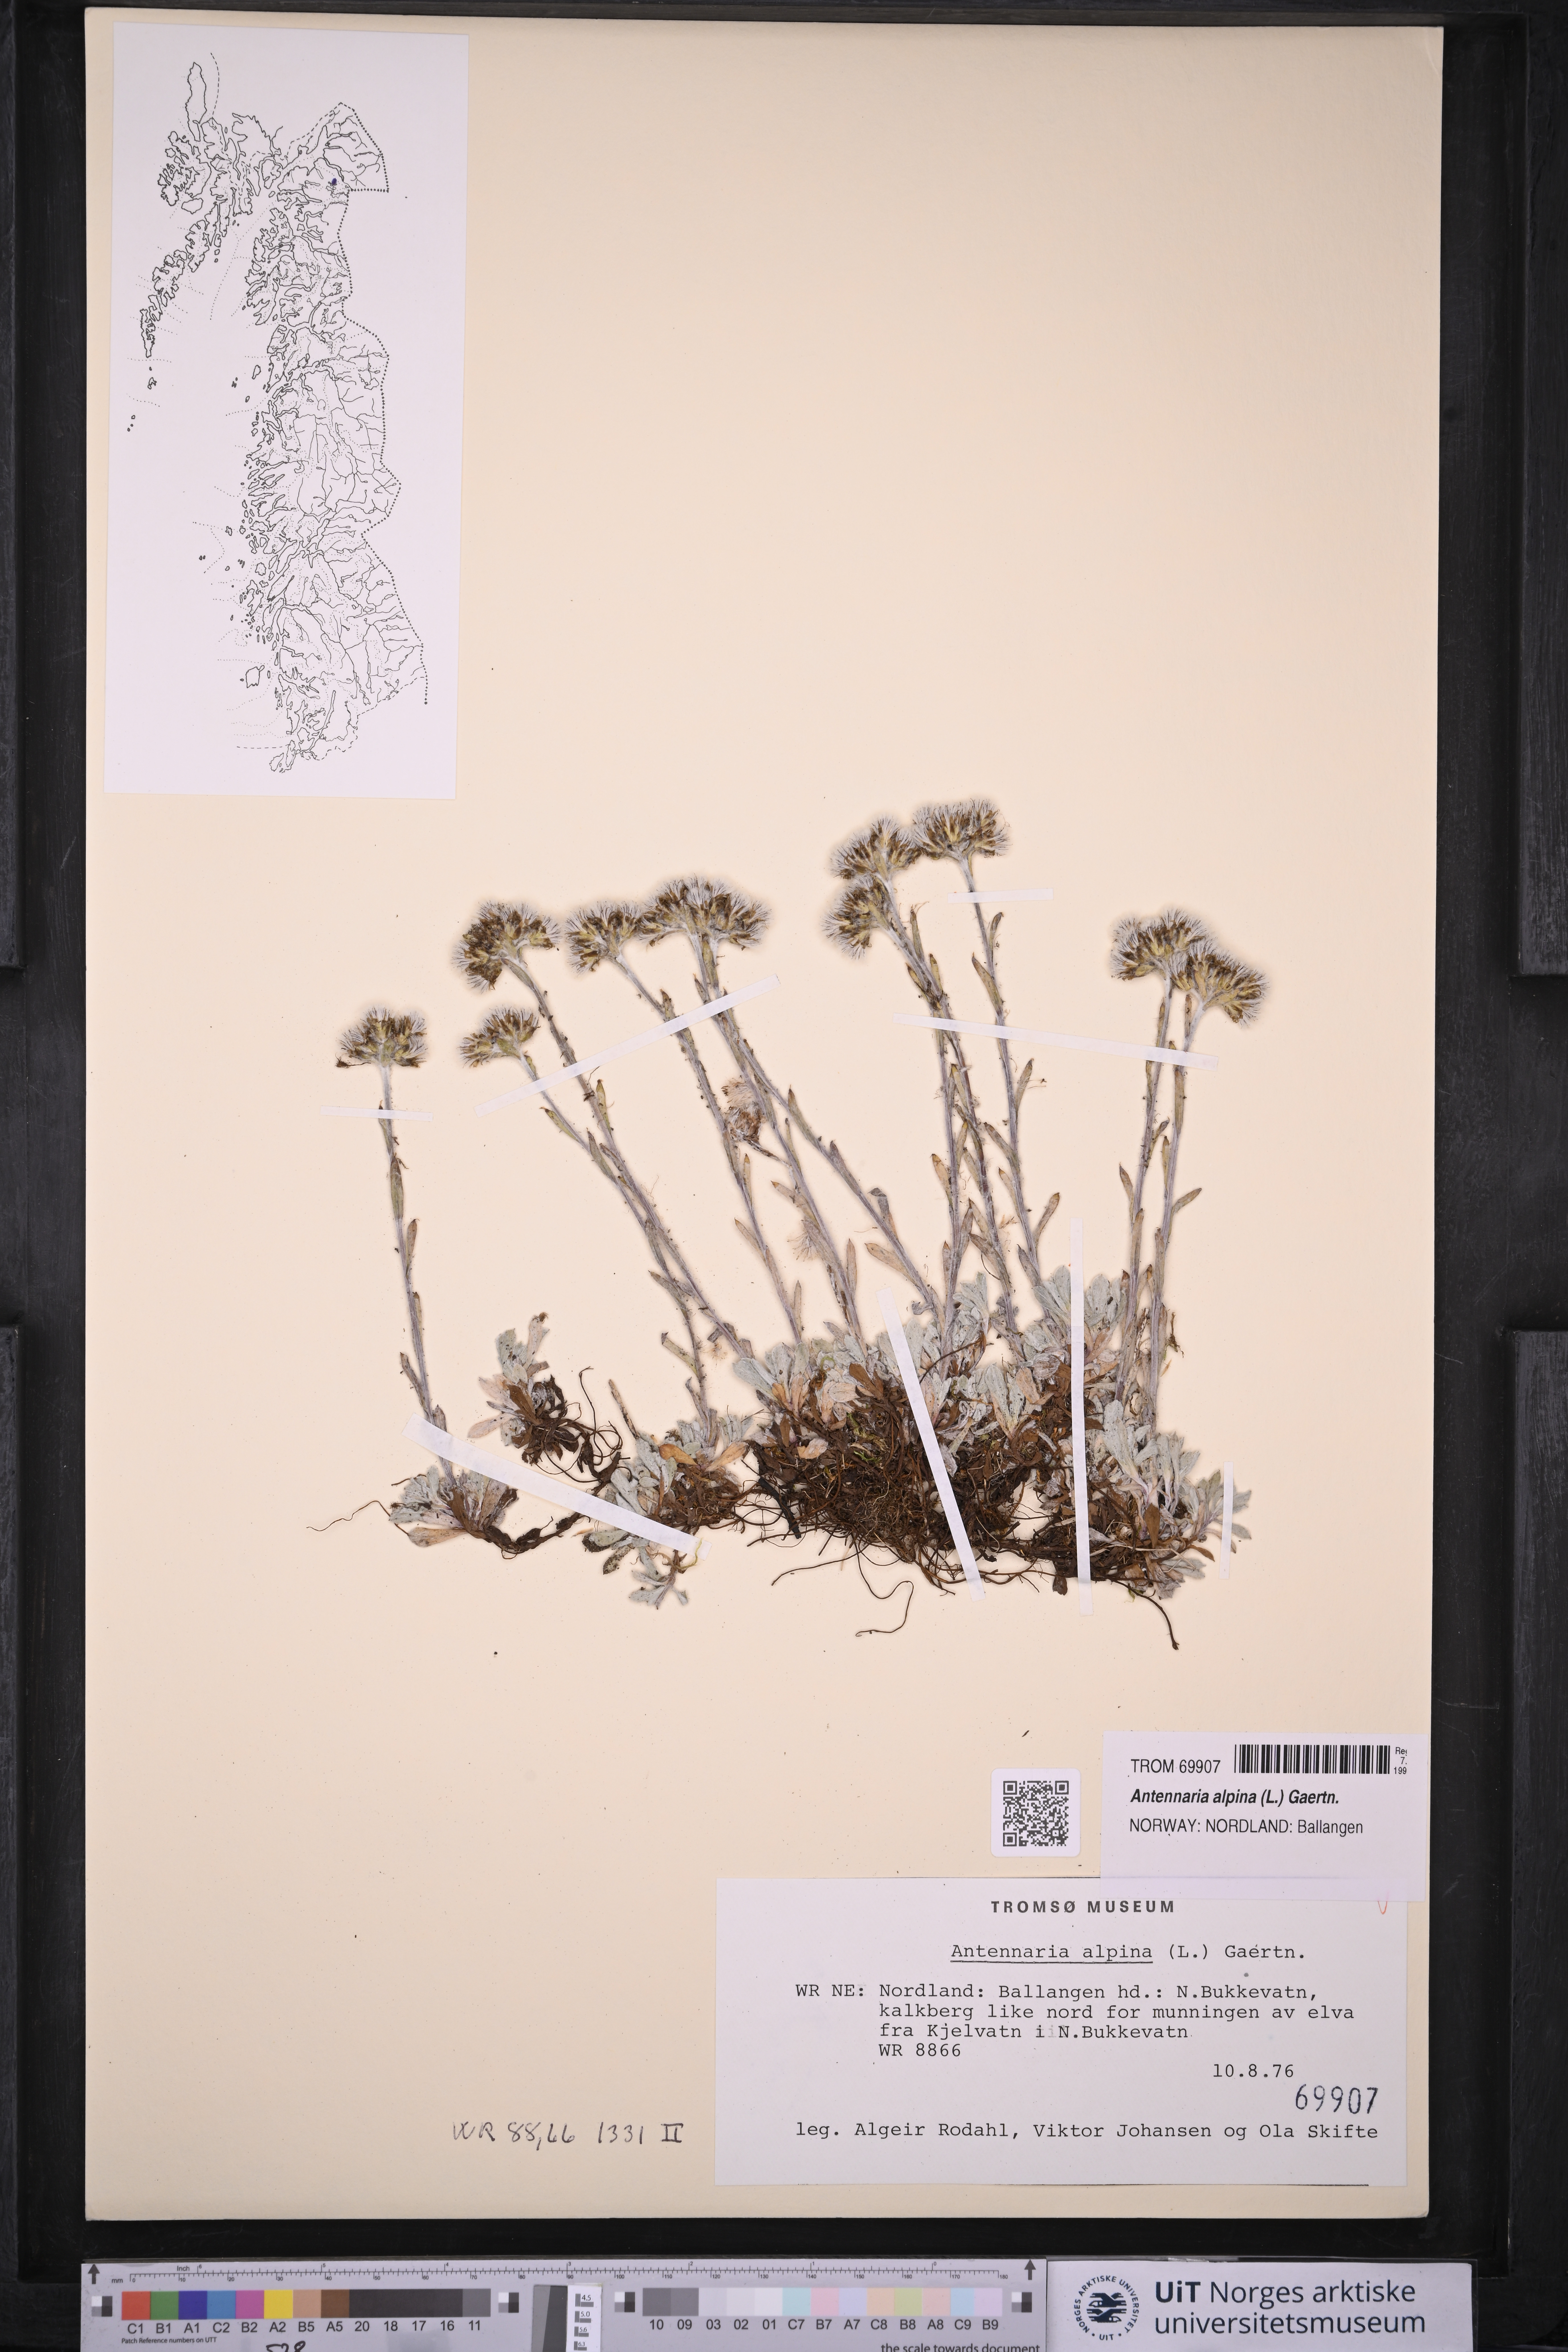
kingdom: Plantae
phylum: Tracheophyta
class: Magnoliopsida
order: Asterales
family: Asteraceae
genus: Antennaria
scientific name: Antennaria alpina
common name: Alpine pussytoes
